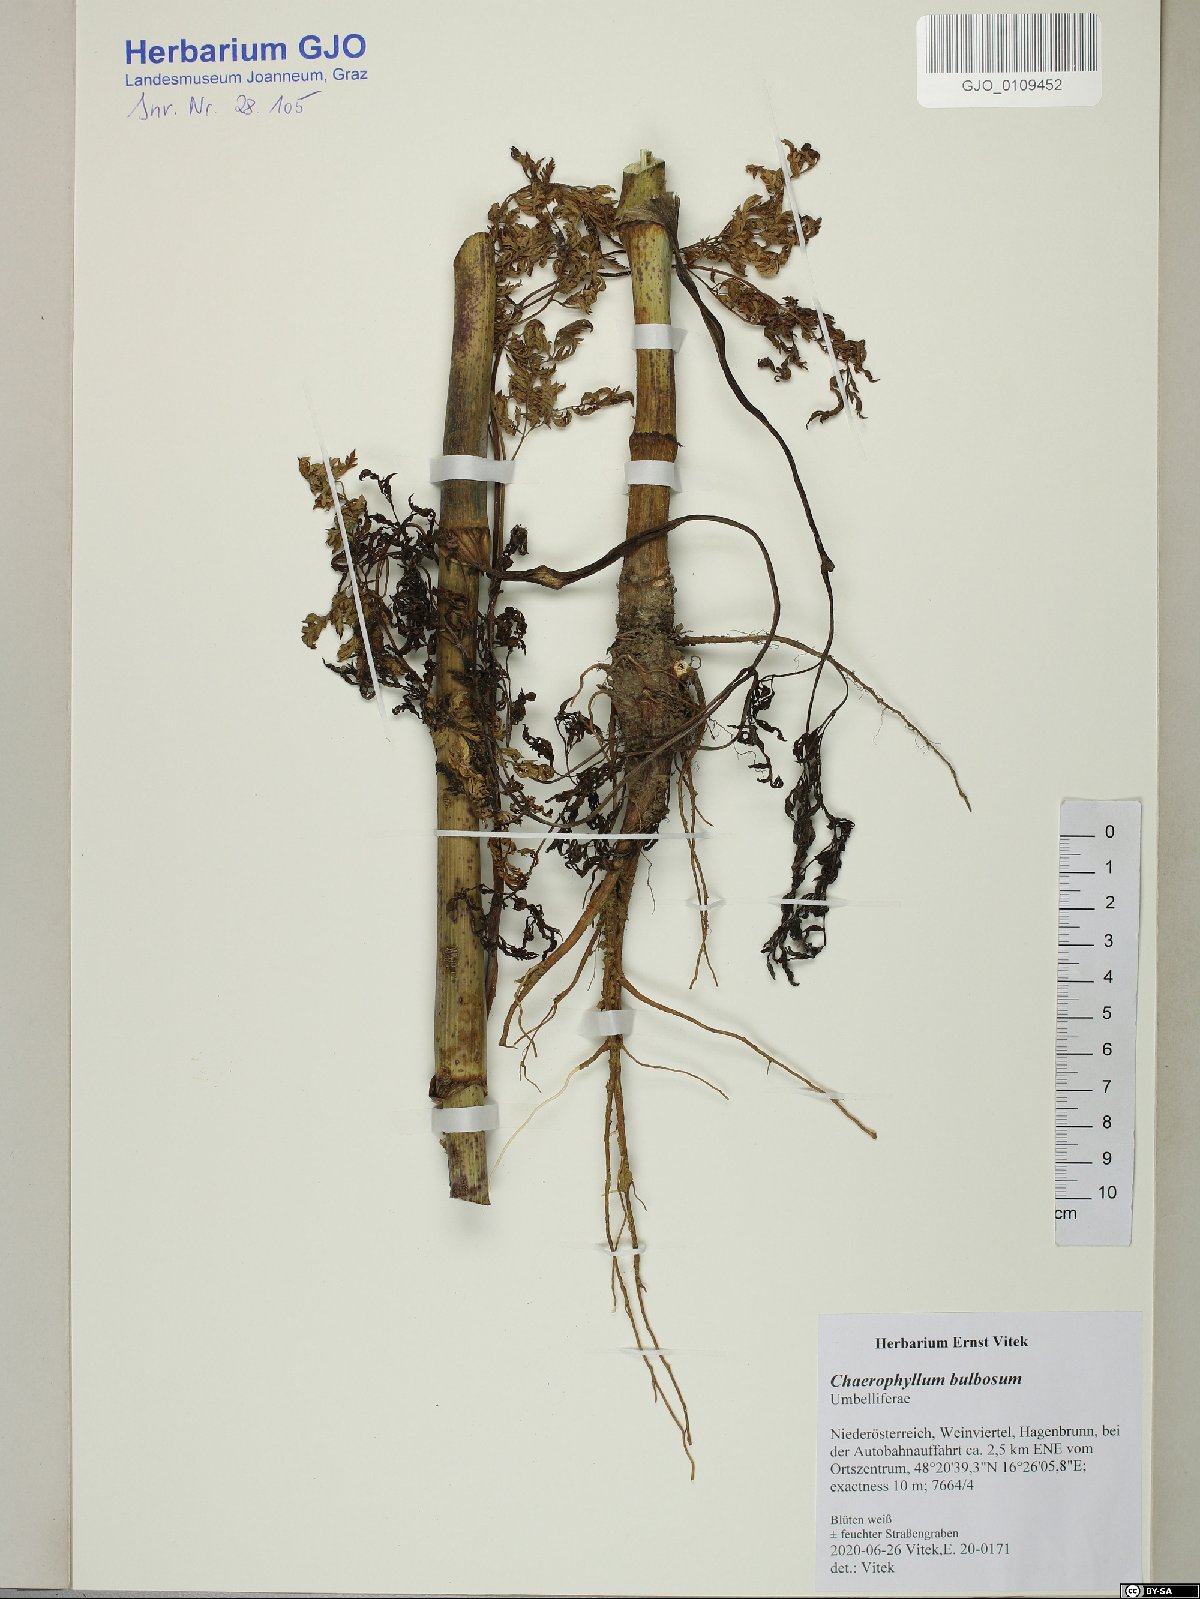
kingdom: Plantae
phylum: Tracheophyta
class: Magnoliopsida
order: Apiales
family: Apiaceae
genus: Chaerophyllum
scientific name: Chaerophyllum bulbosum
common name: Bulbous chervil
